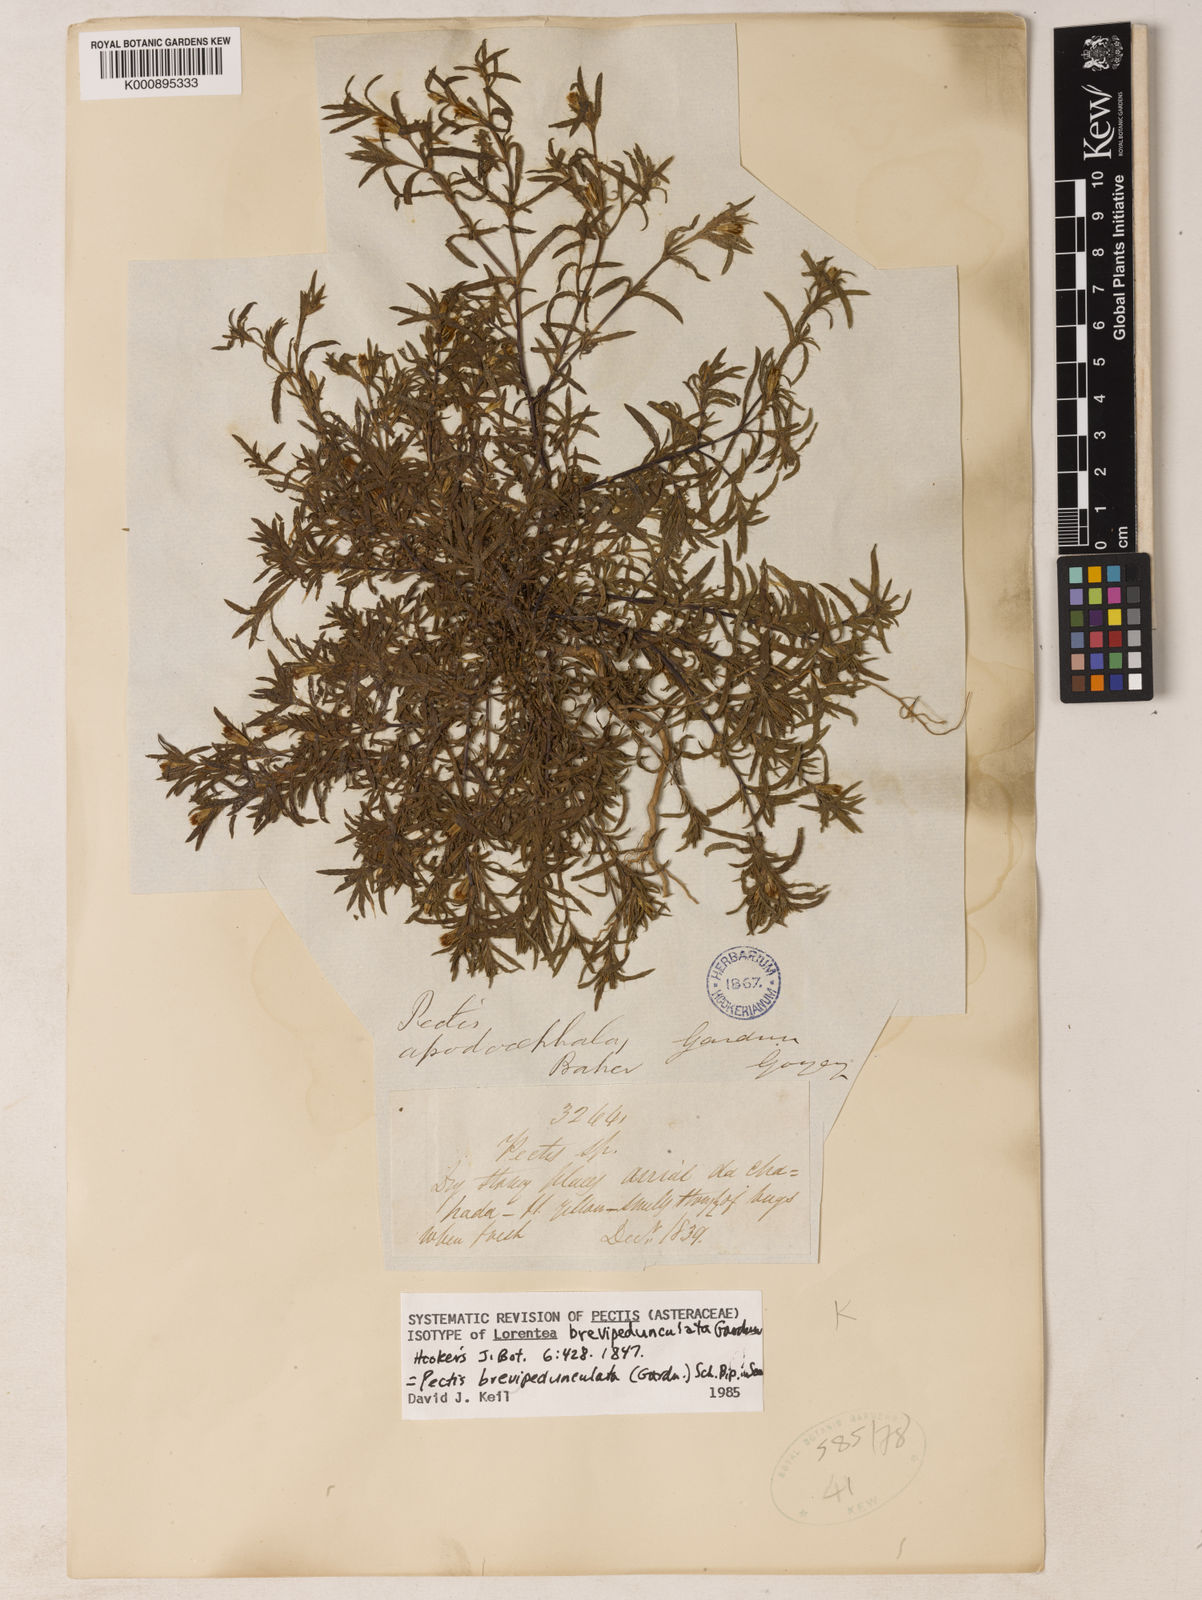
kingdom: Plantae
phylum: Tracheophyta
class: Magnoliopsida
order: Asterales
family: Asteraceae
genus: Pectis
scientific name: Pectis brevipedunculata
